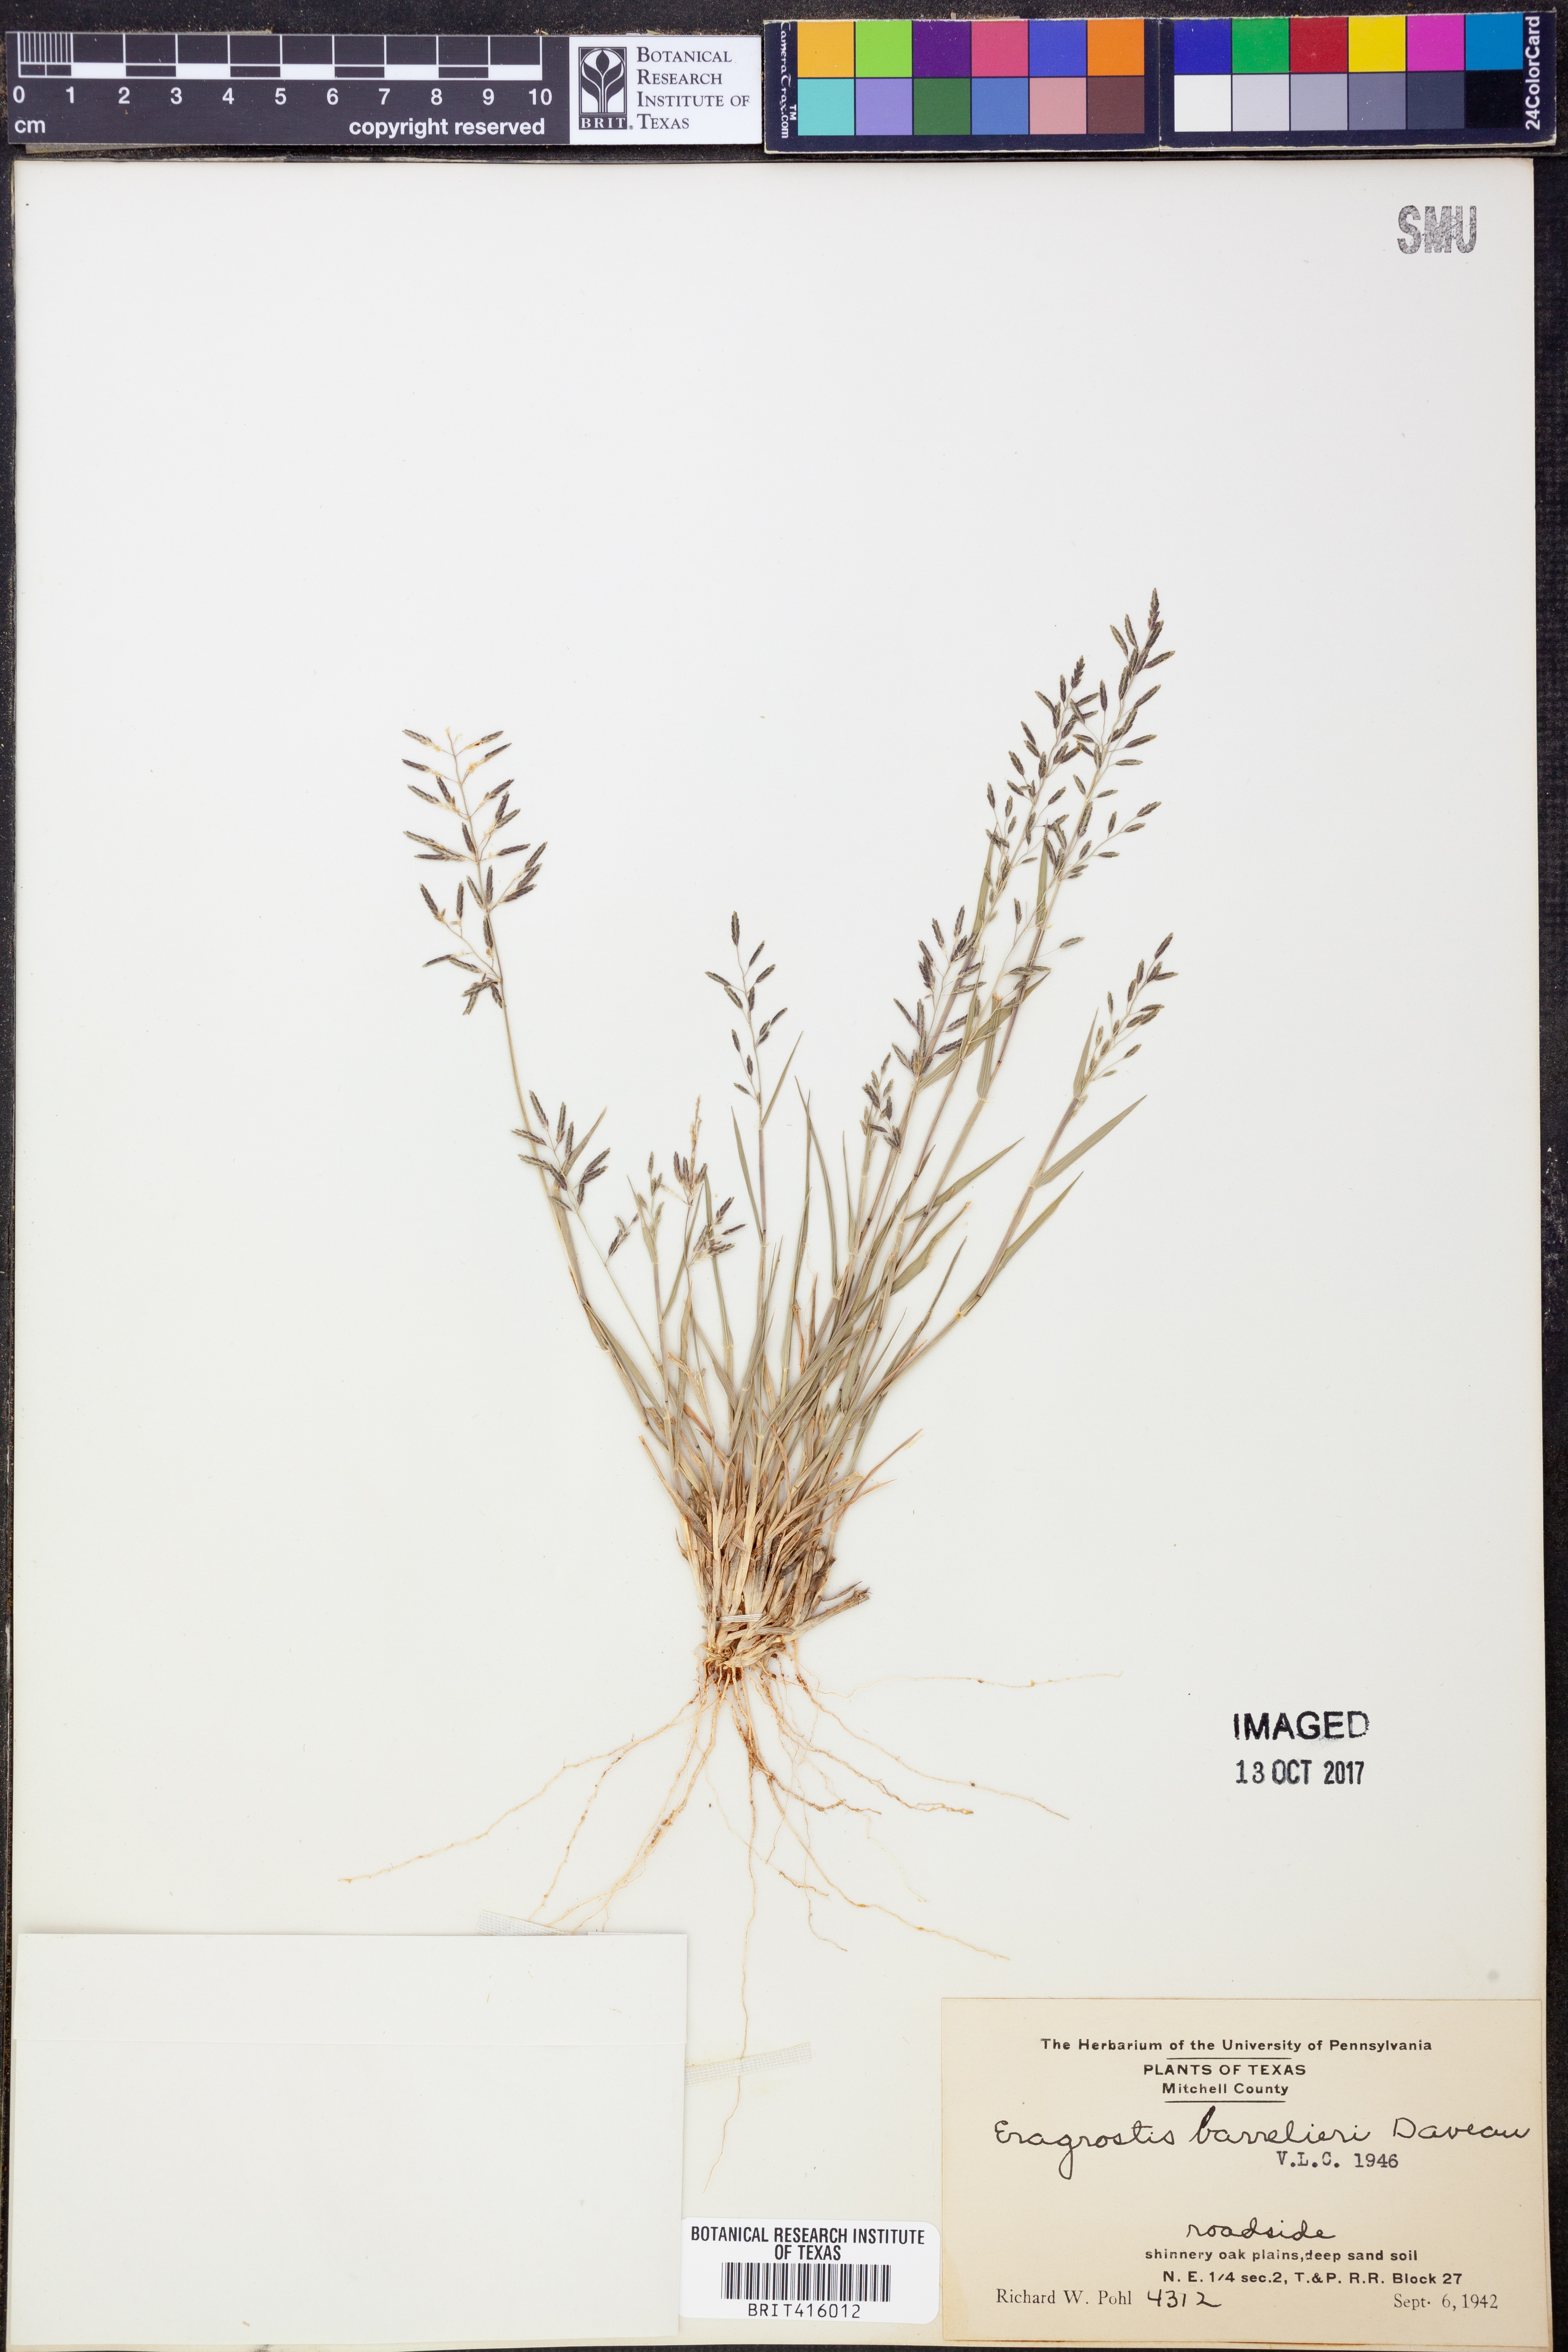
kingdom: Plantae
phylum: Tracheophyta
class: Liliopsida
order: Poales
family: Poaceae
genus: Eragrostis
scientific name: Eragrostis barrelieri
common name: Mediterranean lovegrass
